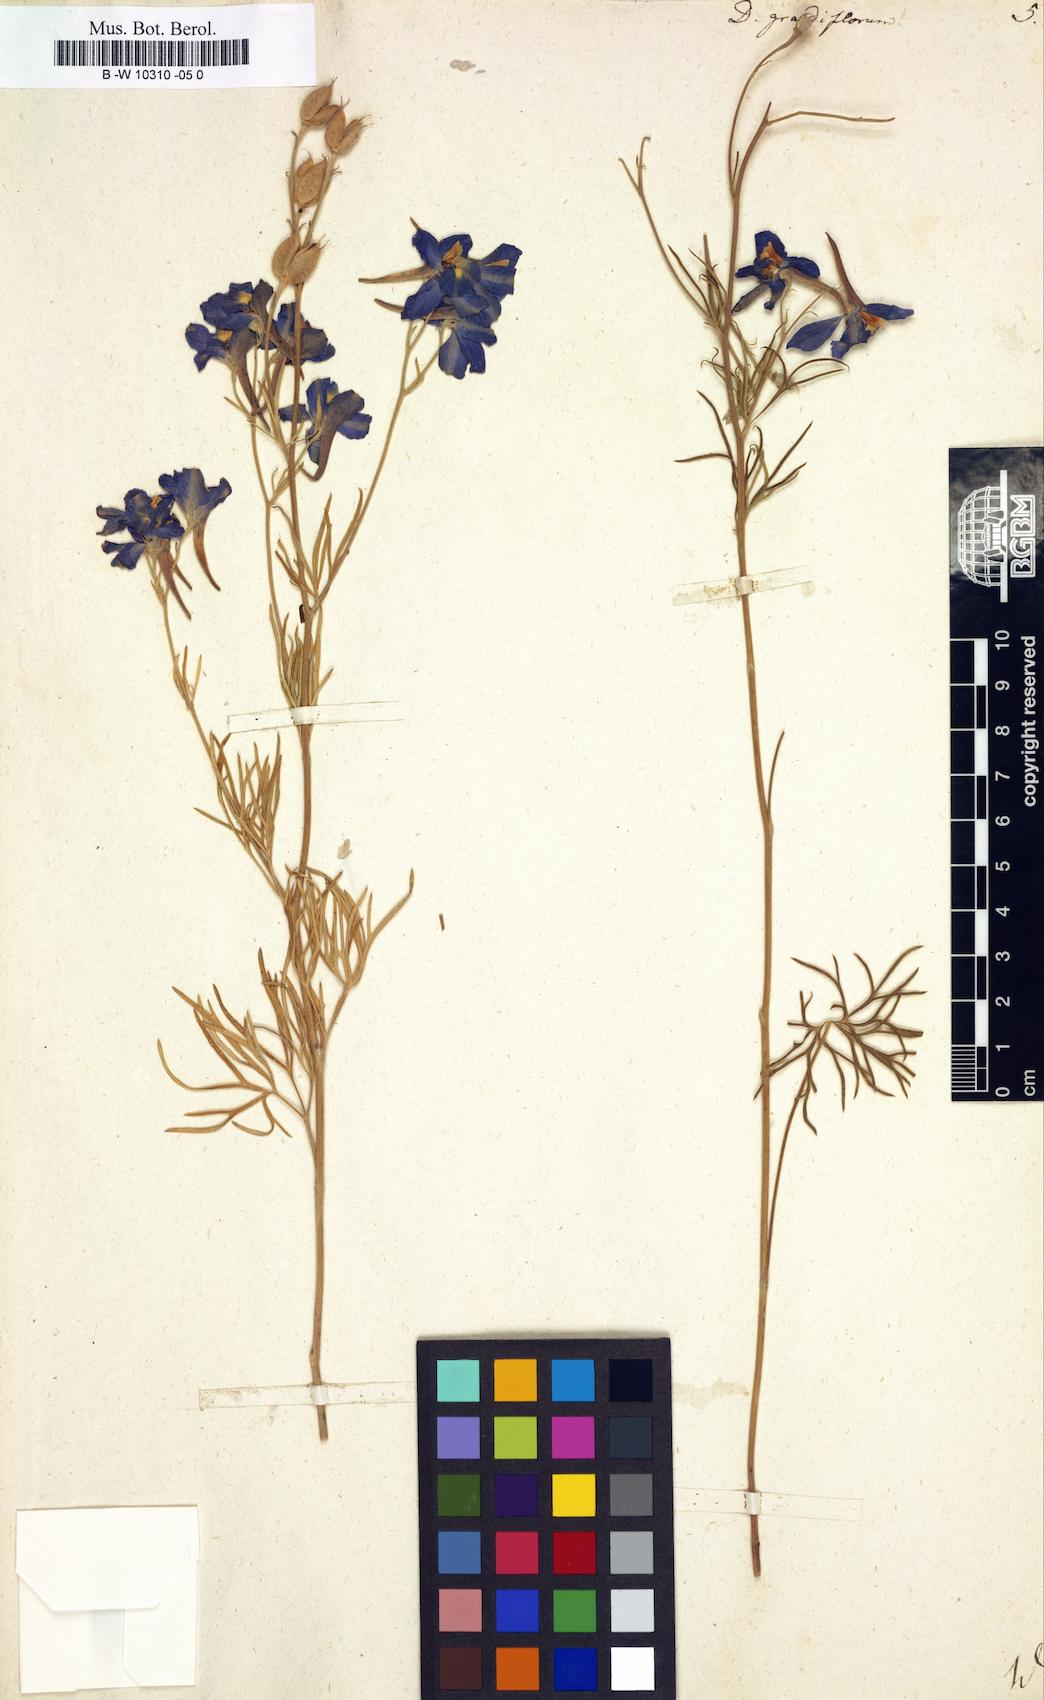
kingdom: Plantae
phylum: Tracheophyta
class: Magnoliopsida
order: Ranunculales
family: Ranunculaceae
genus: Delphinium
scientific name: Delphinium grandiflorum
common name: Siberian larkspur
